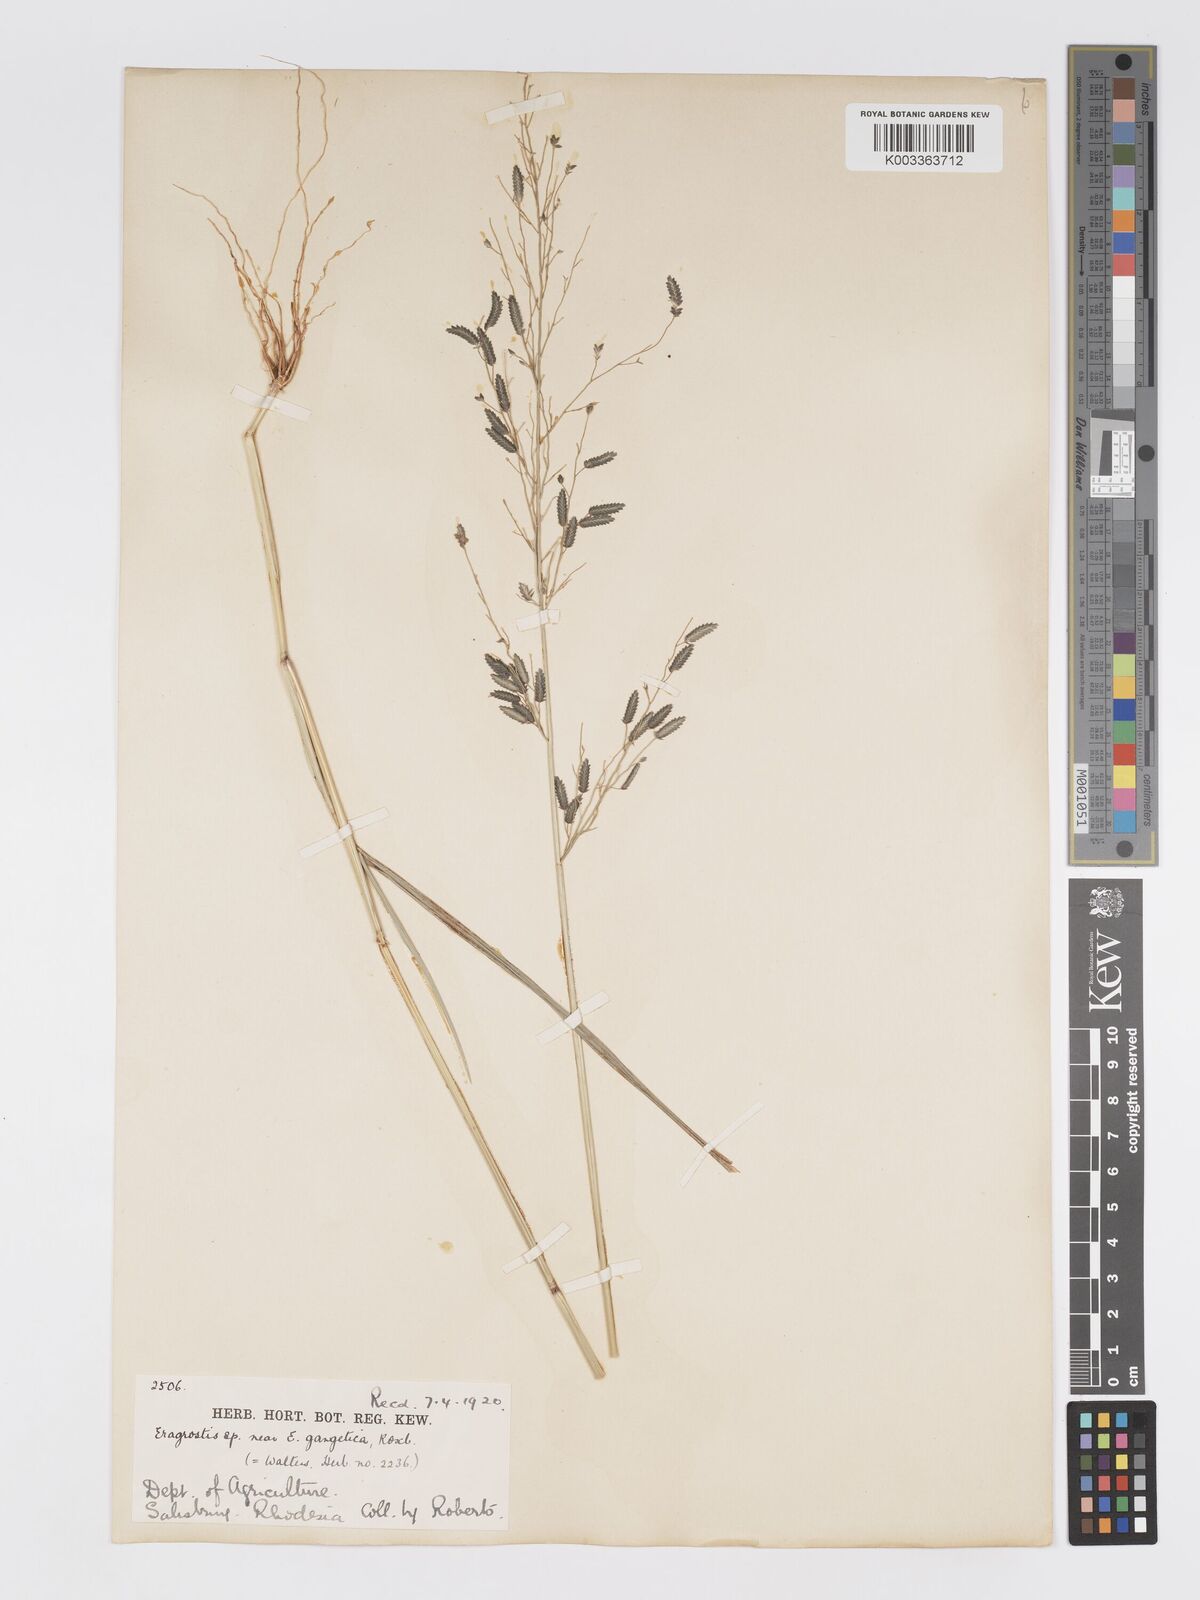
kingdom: Plantae
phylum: Tracheophyta
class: Liliopsida
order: Poales
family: Poaceae
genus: Eragrostis
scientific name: Eragrostis cilianensis
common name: Stinkgrass
